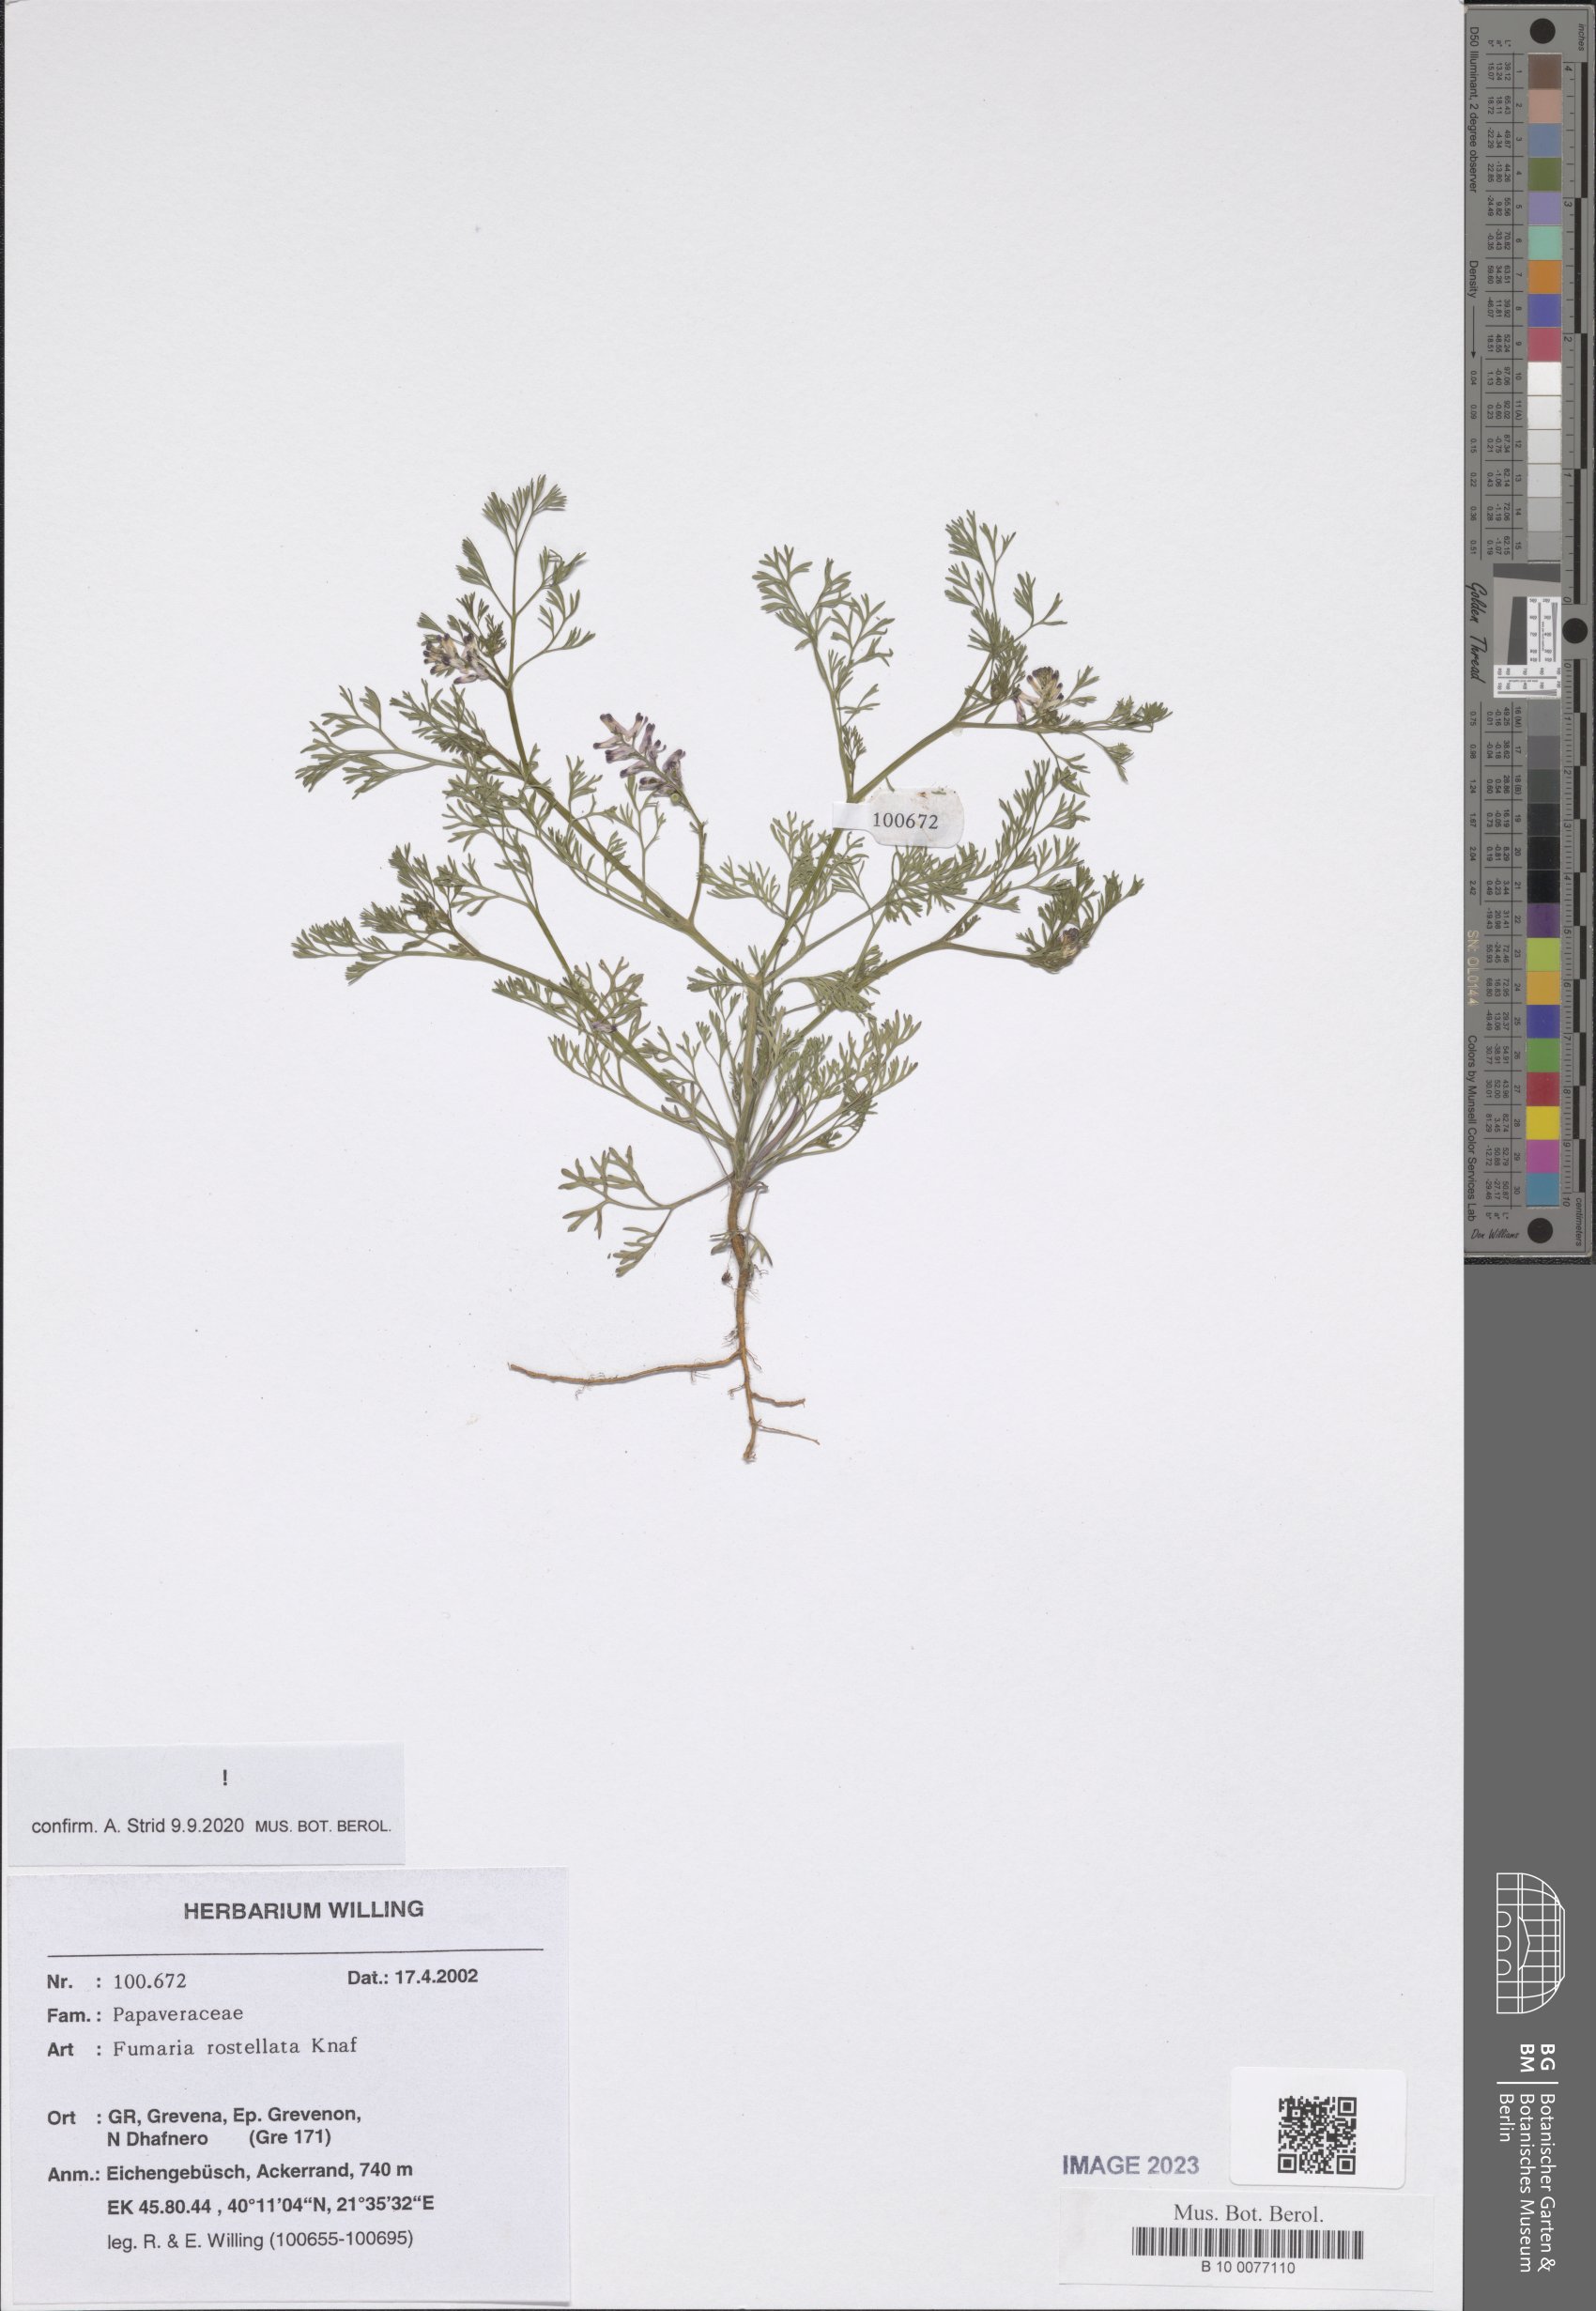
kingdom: Plantae
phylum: Tracheophyta
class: Magnoliopsida
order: Ranunculales
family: Papaveraceae
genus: Fumaria
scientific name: Fumaria rostellata
